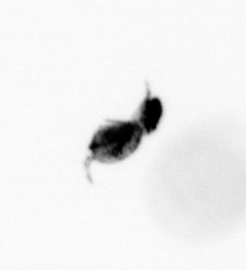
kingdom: Animalia
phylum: Arthropoda
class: Copepoda
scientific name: Copepoda
